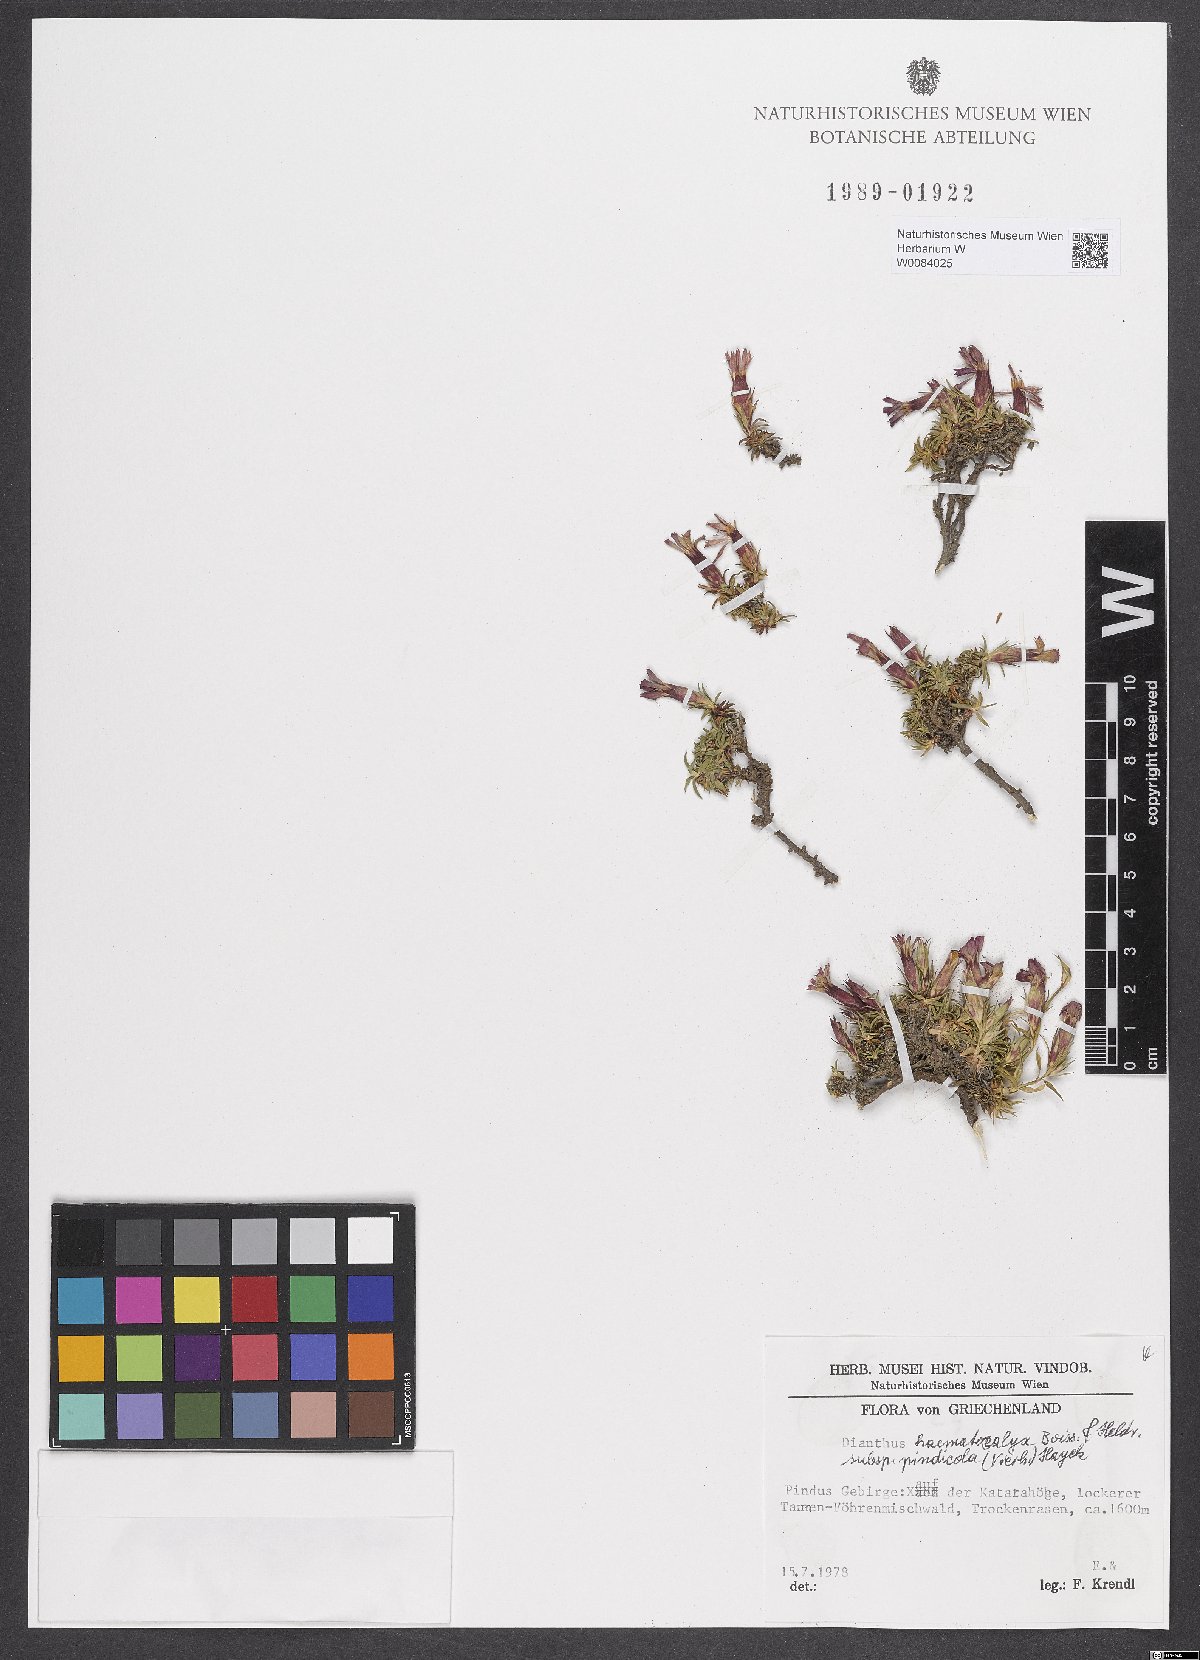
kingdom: Plantae
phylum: Tracheophyta
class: Magnoliopsida
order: Caryophyllales
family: Caryophyllaceae
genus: Dianthus
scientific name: Dianthus haematocalyx
